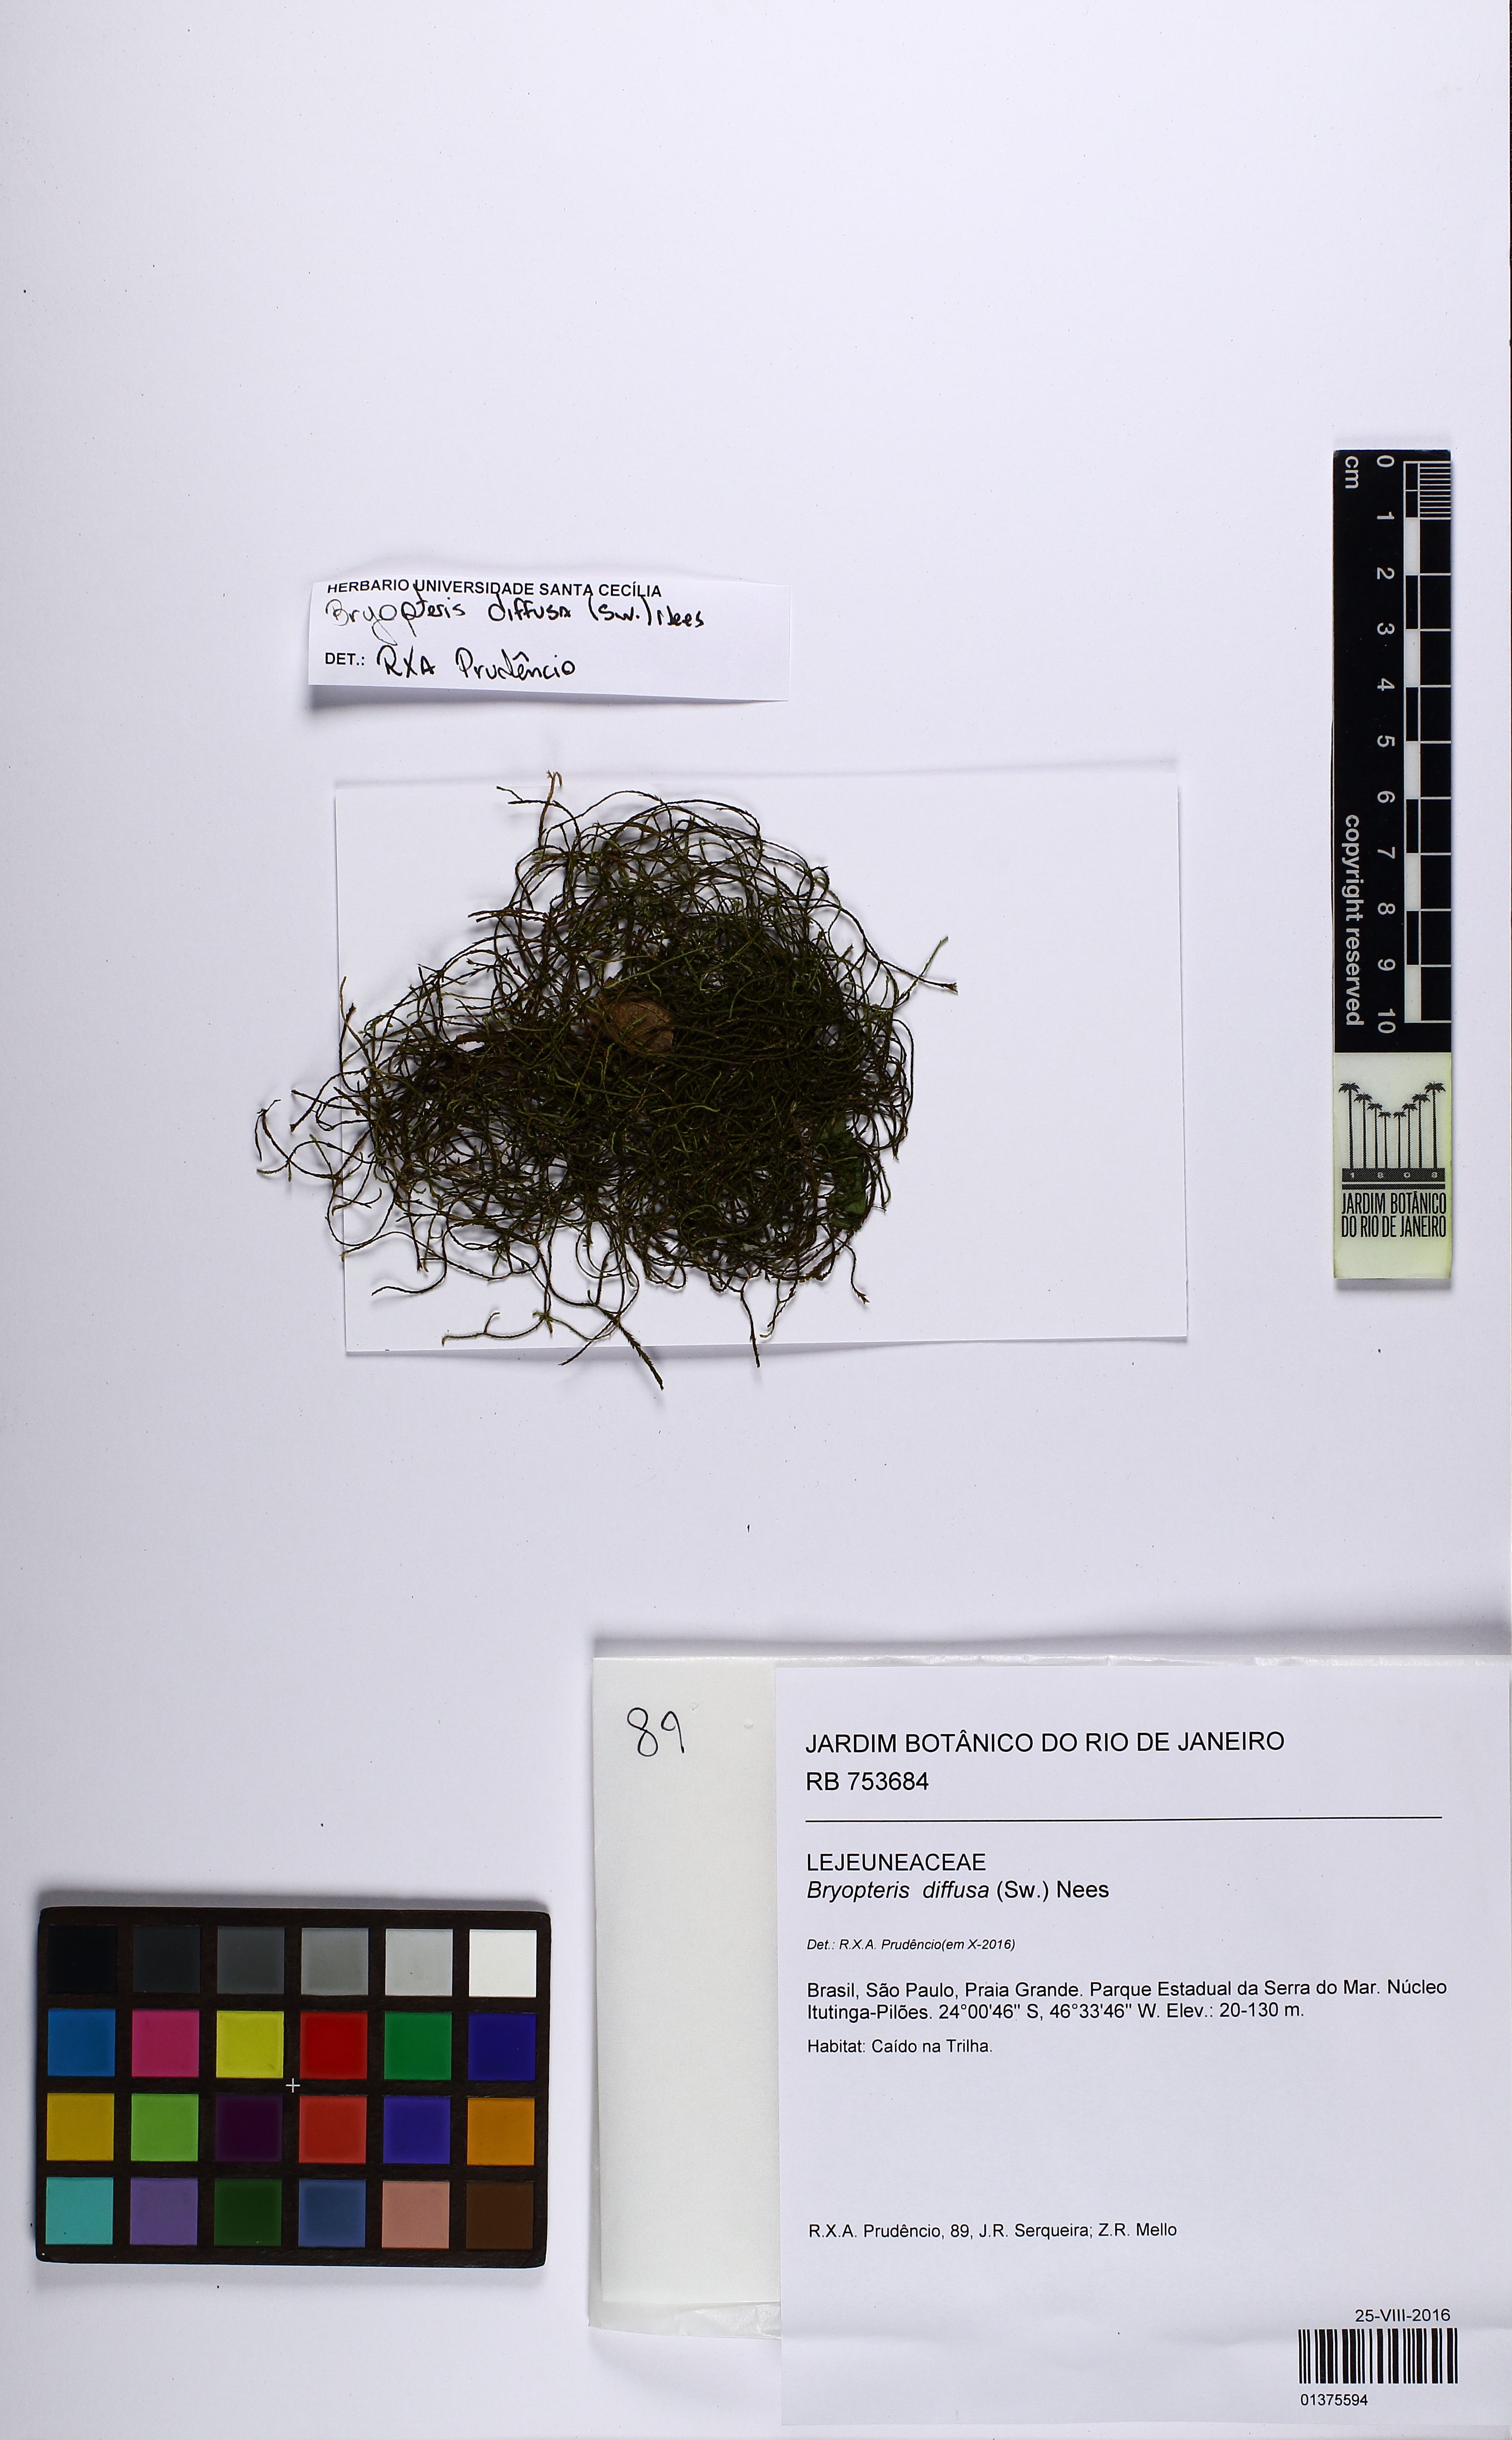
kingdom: Plantae
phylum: Marchantiophyta
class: Jungermanniopsida
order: Porellales
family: Lejeuneaceae
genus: Bryopteris
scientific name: Bryopteris diffusa
